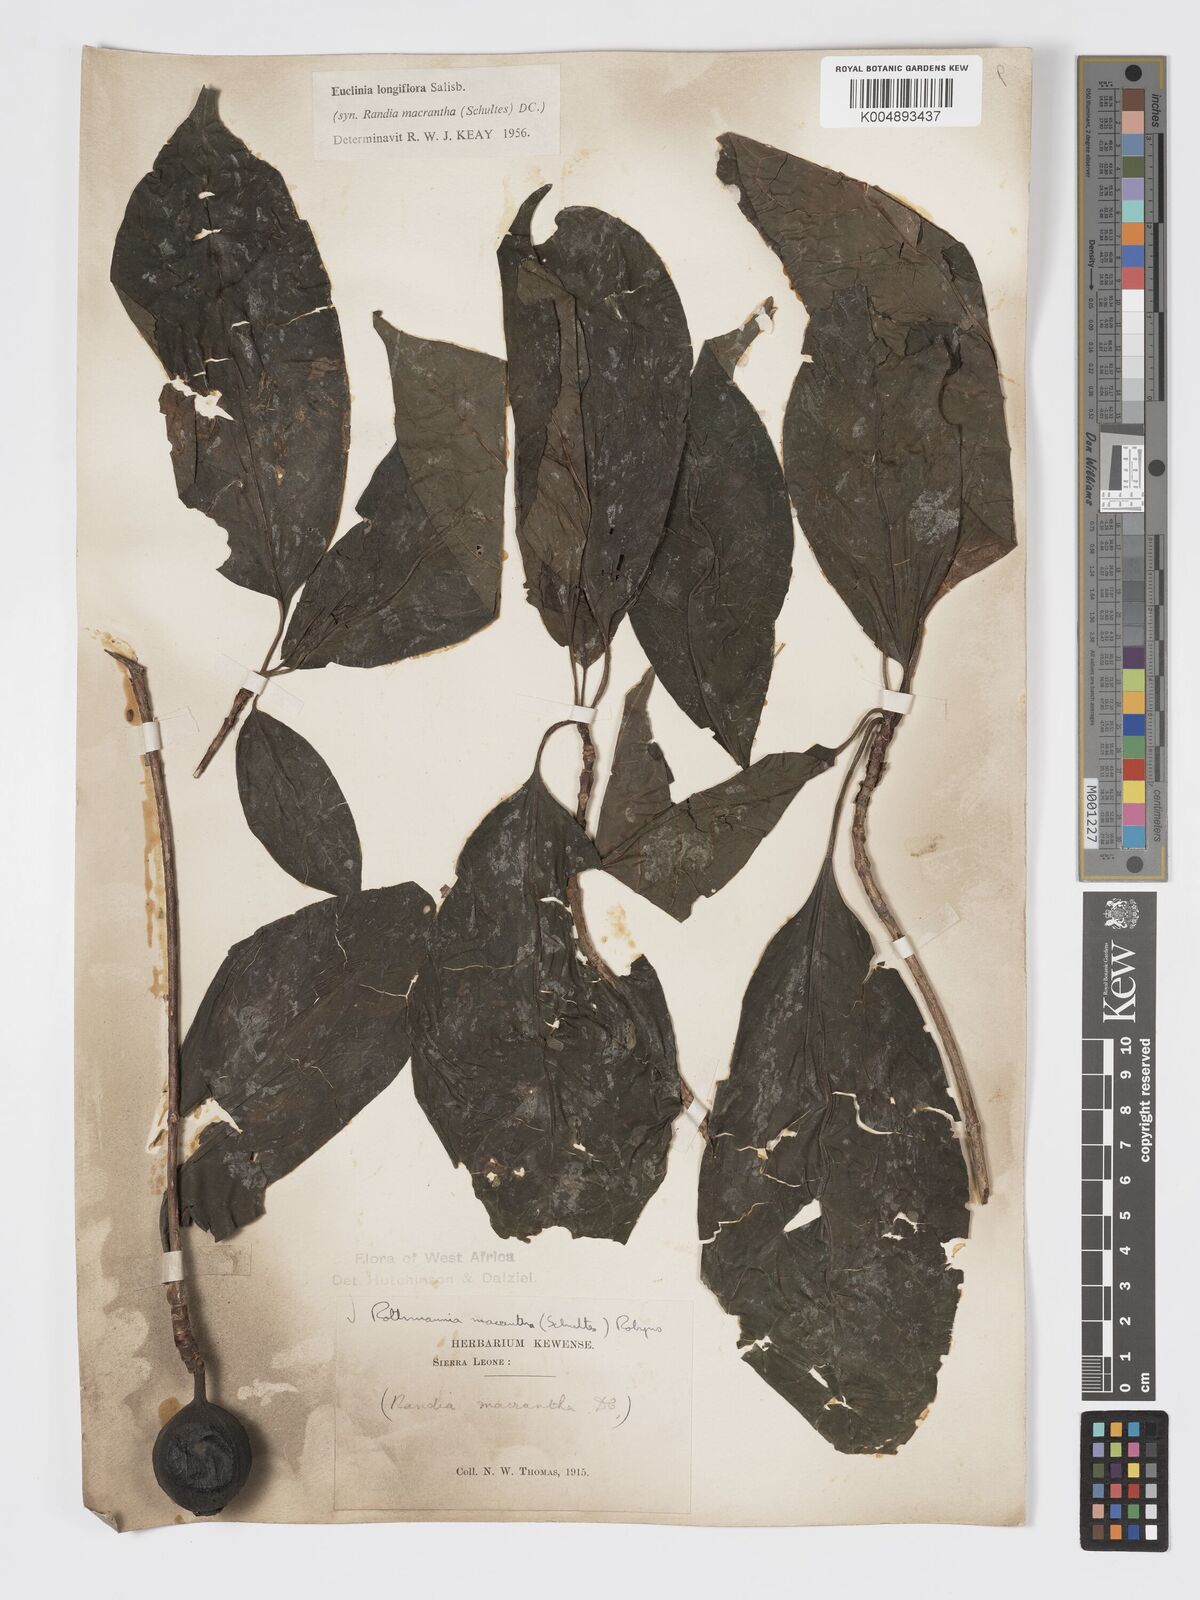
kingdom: Plantae
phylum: Tracheophyta
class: Magnoliopsida
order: Gentianales
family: Rubiaceae
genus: Euclinia
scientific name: Euclinia longiflora
